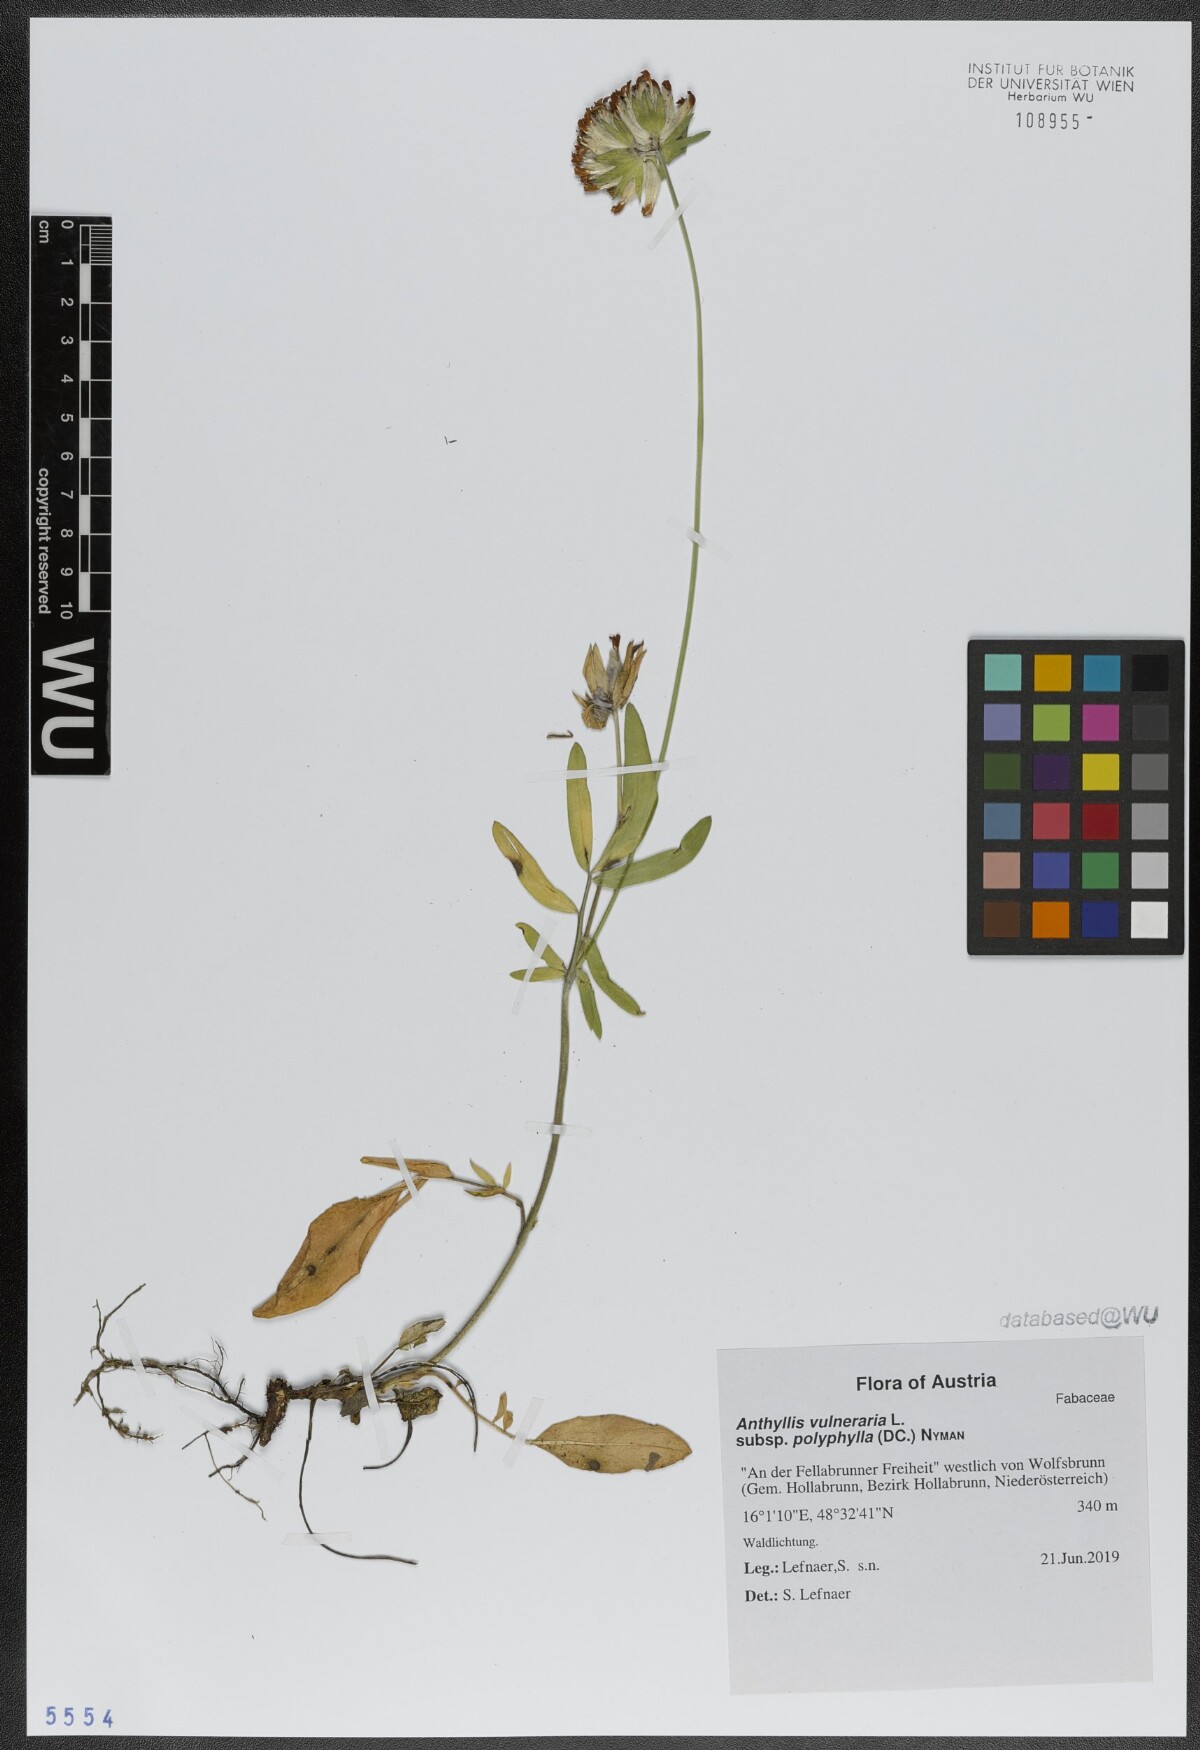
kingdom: Plantae
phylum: Tracheophyta
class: Magnoliopsida
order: Fabales
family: Fabaceae
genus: Anthyllis
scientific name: Anthyllis vulneraria
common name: Kidney vetch
